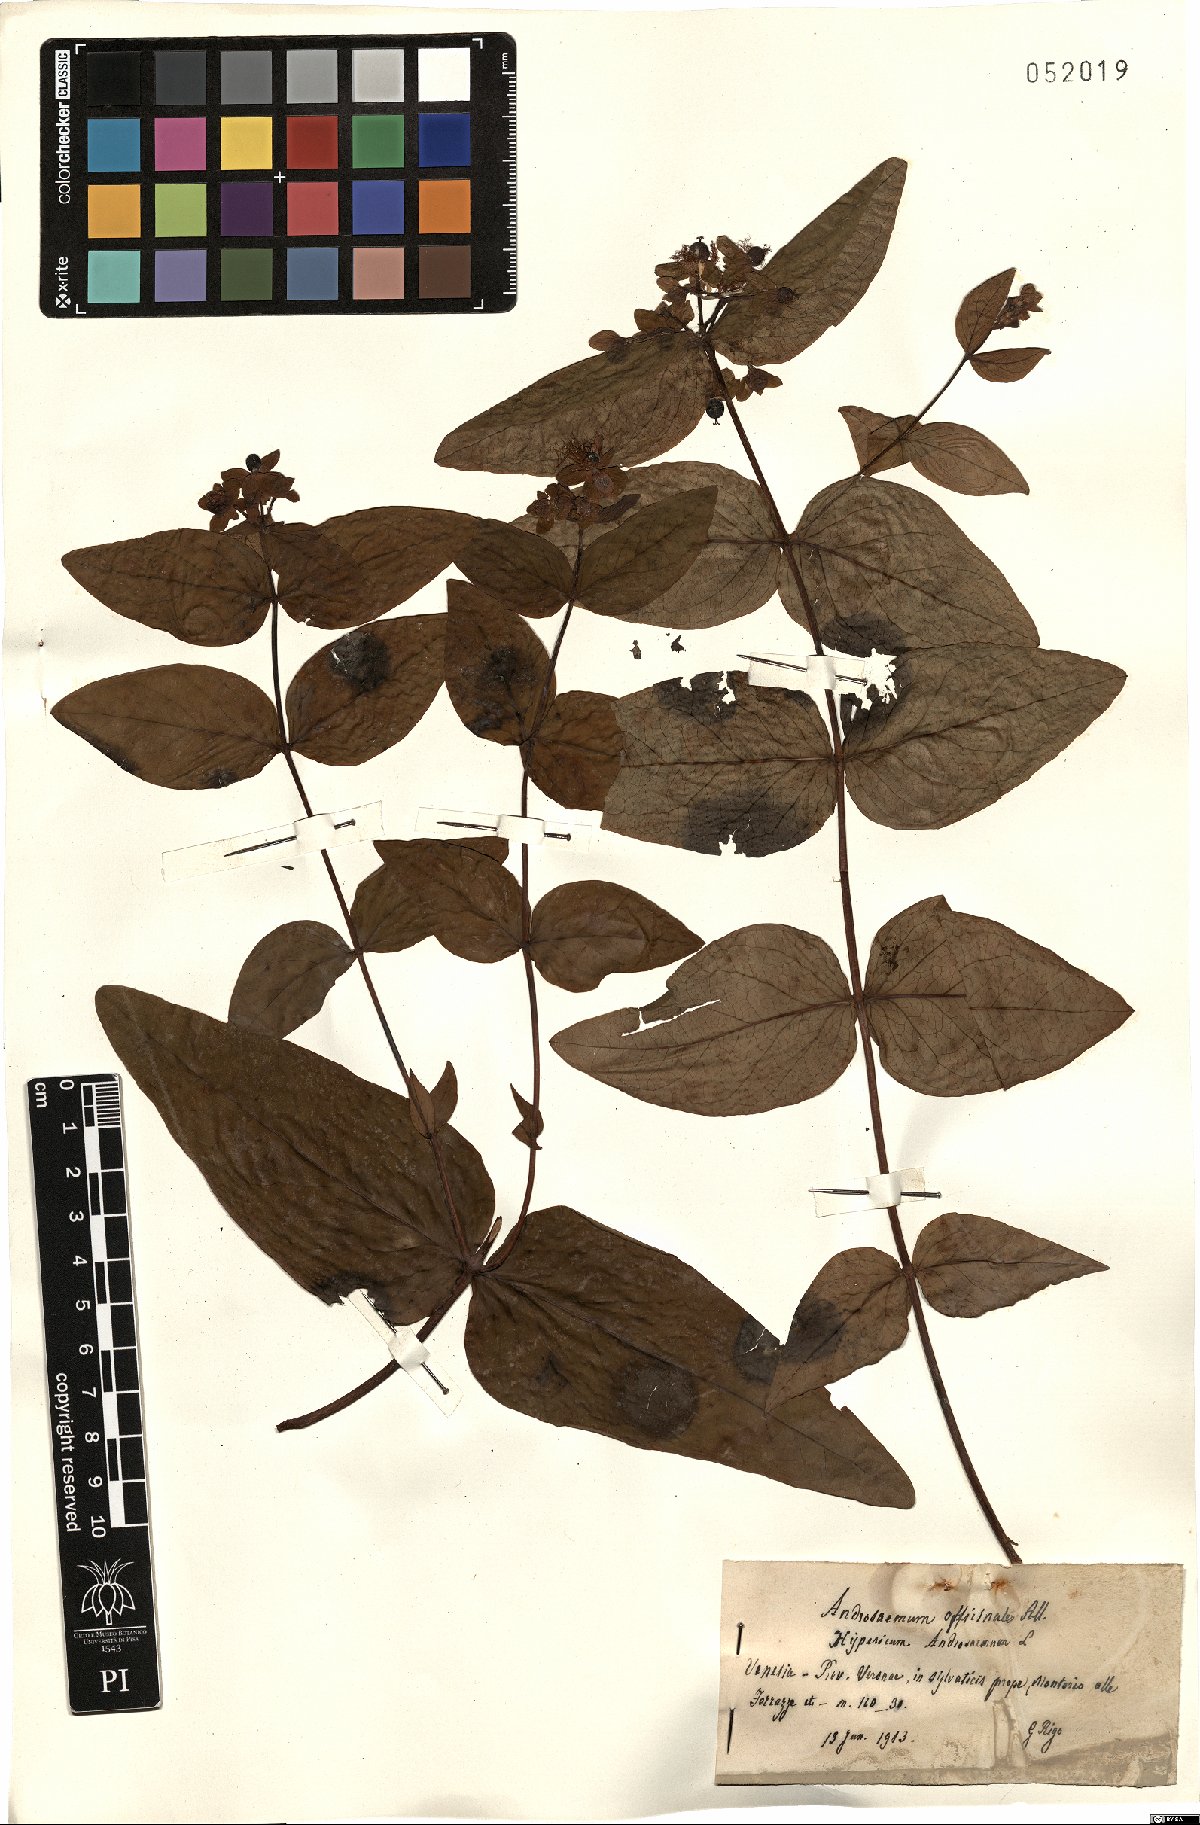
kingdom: Plantae
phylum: Tracheophyta
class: Magnoliopsida
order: Malpighiales
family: Hypericaceae
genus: Hypericum
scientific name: Hypericum androsaemum
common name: Sweet-amber
